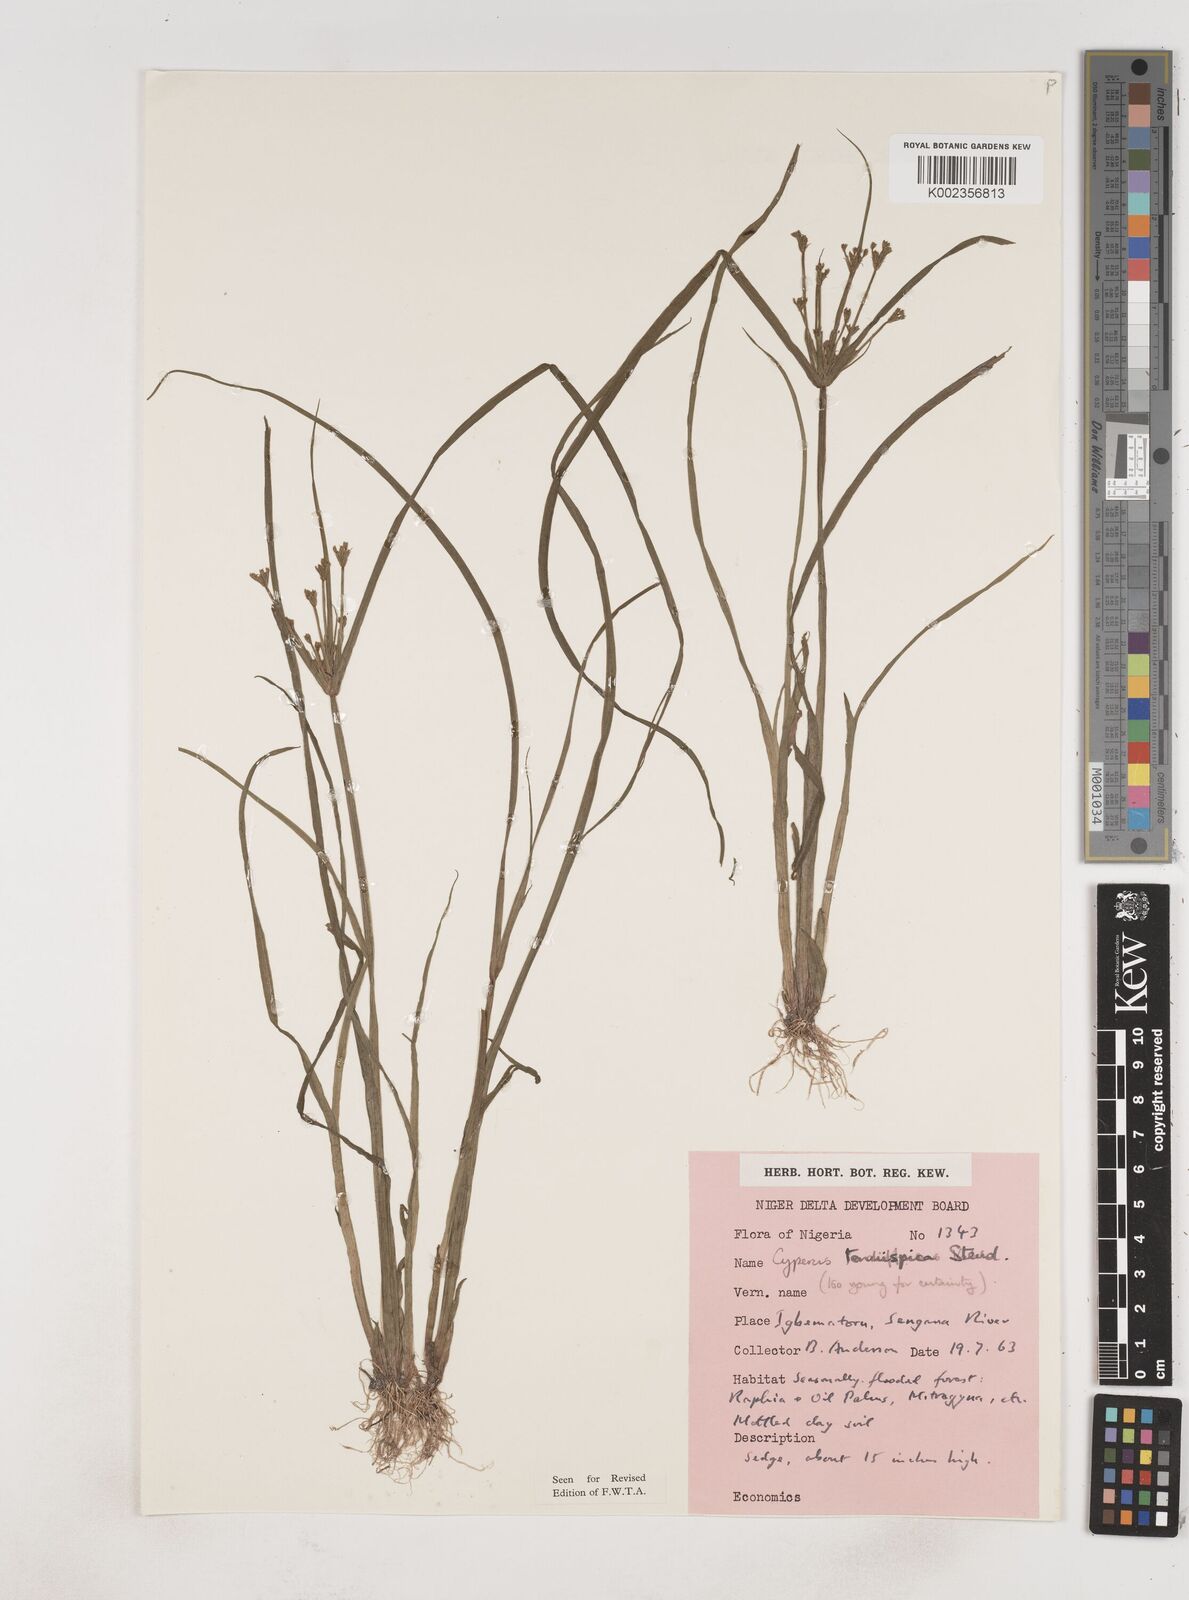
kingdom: Plantae
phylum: Tracheophyta
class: Liliopsida
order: Poales
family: Cyperaceae
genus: Cyperus
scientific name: Cyperus tenuispica
